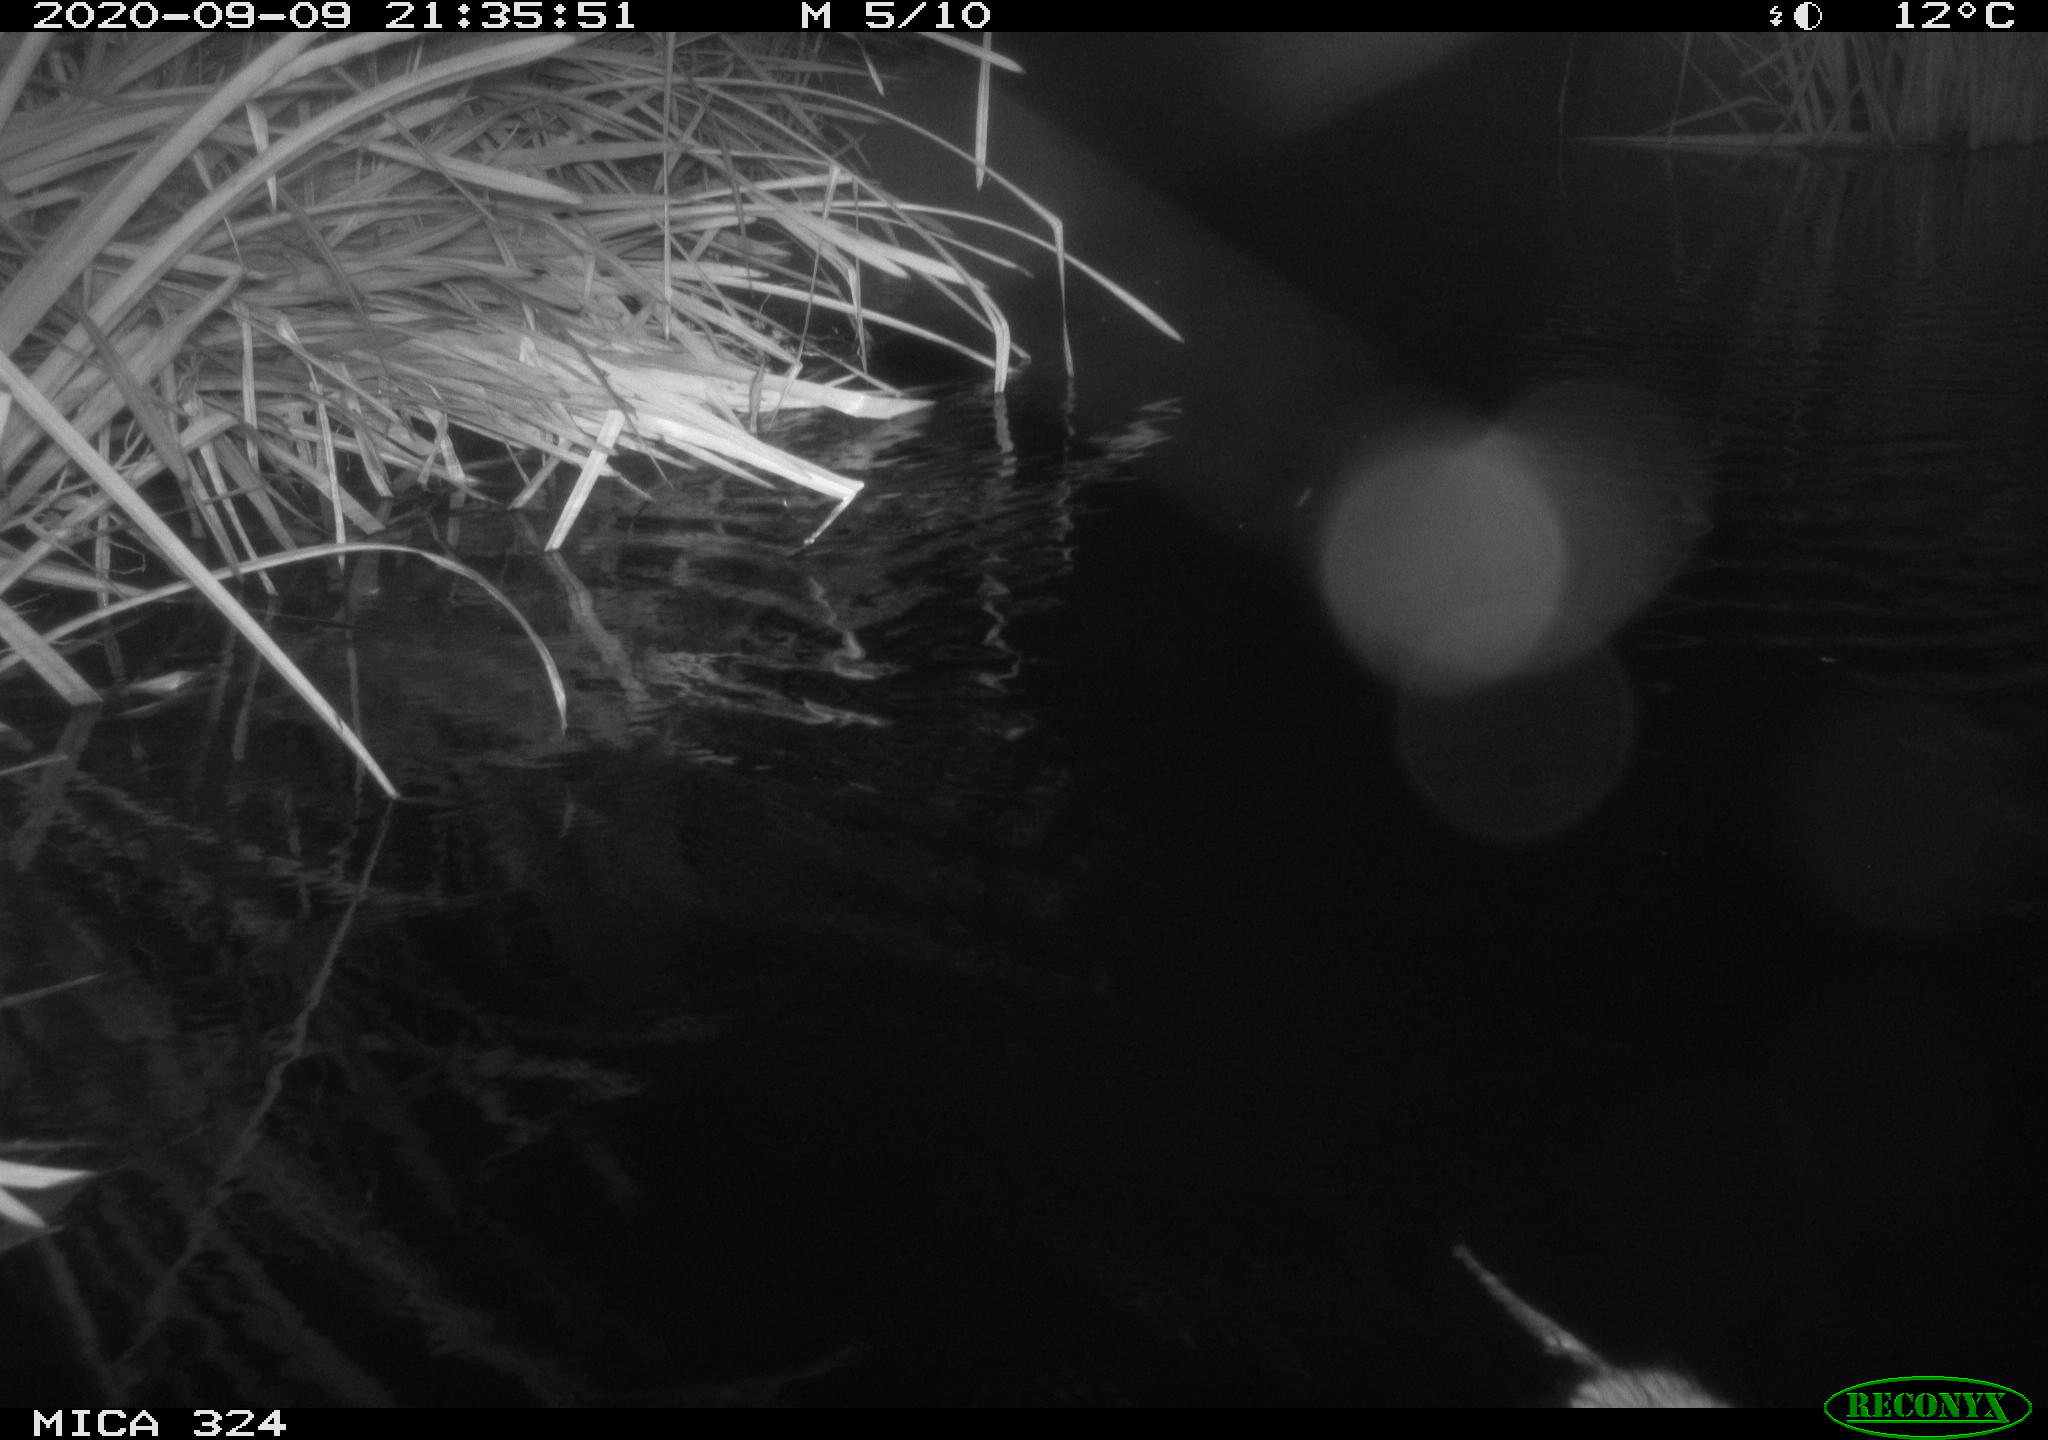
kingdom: Animalia
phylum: Chordata
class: Mammalia
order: Rodentia
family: Cricetidae
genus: Ondatra
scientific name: Ondatra zibethicus
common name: Muskrat
